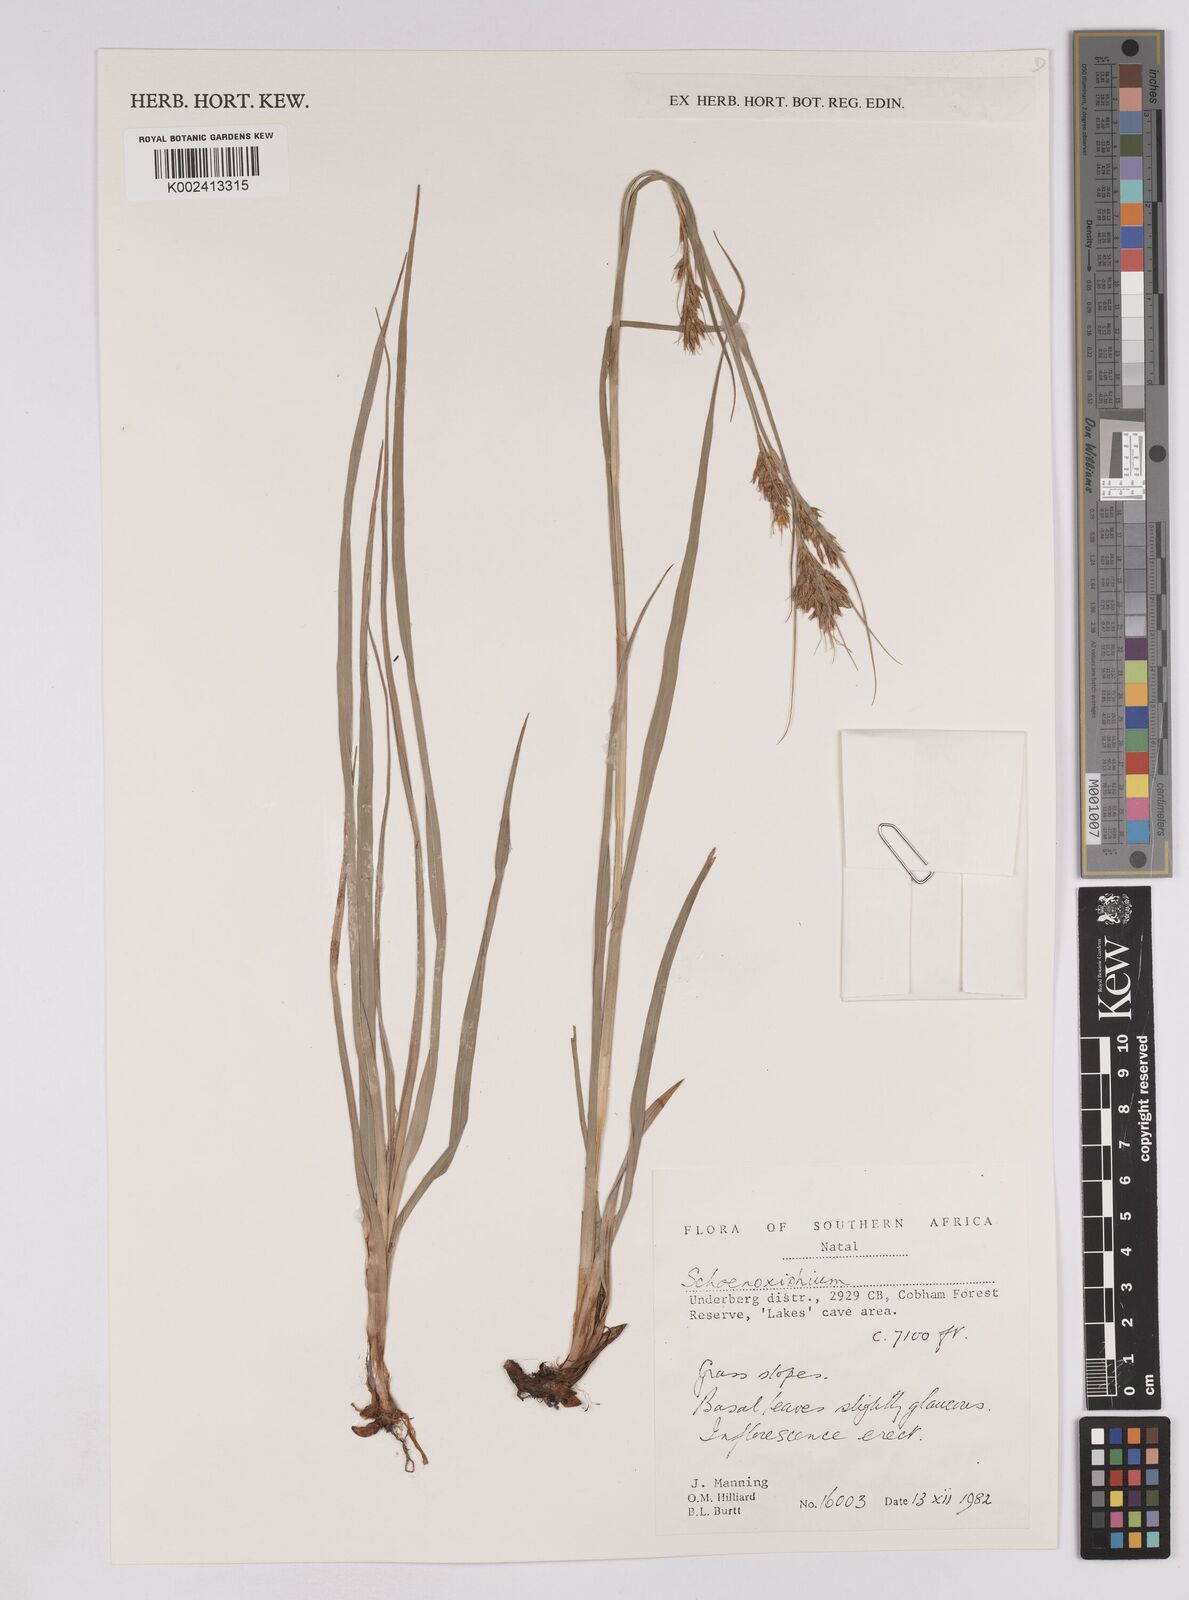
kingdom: Plantae
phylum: Tracheophyta
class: Liliopsida
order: Poales
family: Cyperaceae
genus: Carex
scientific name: Carex
